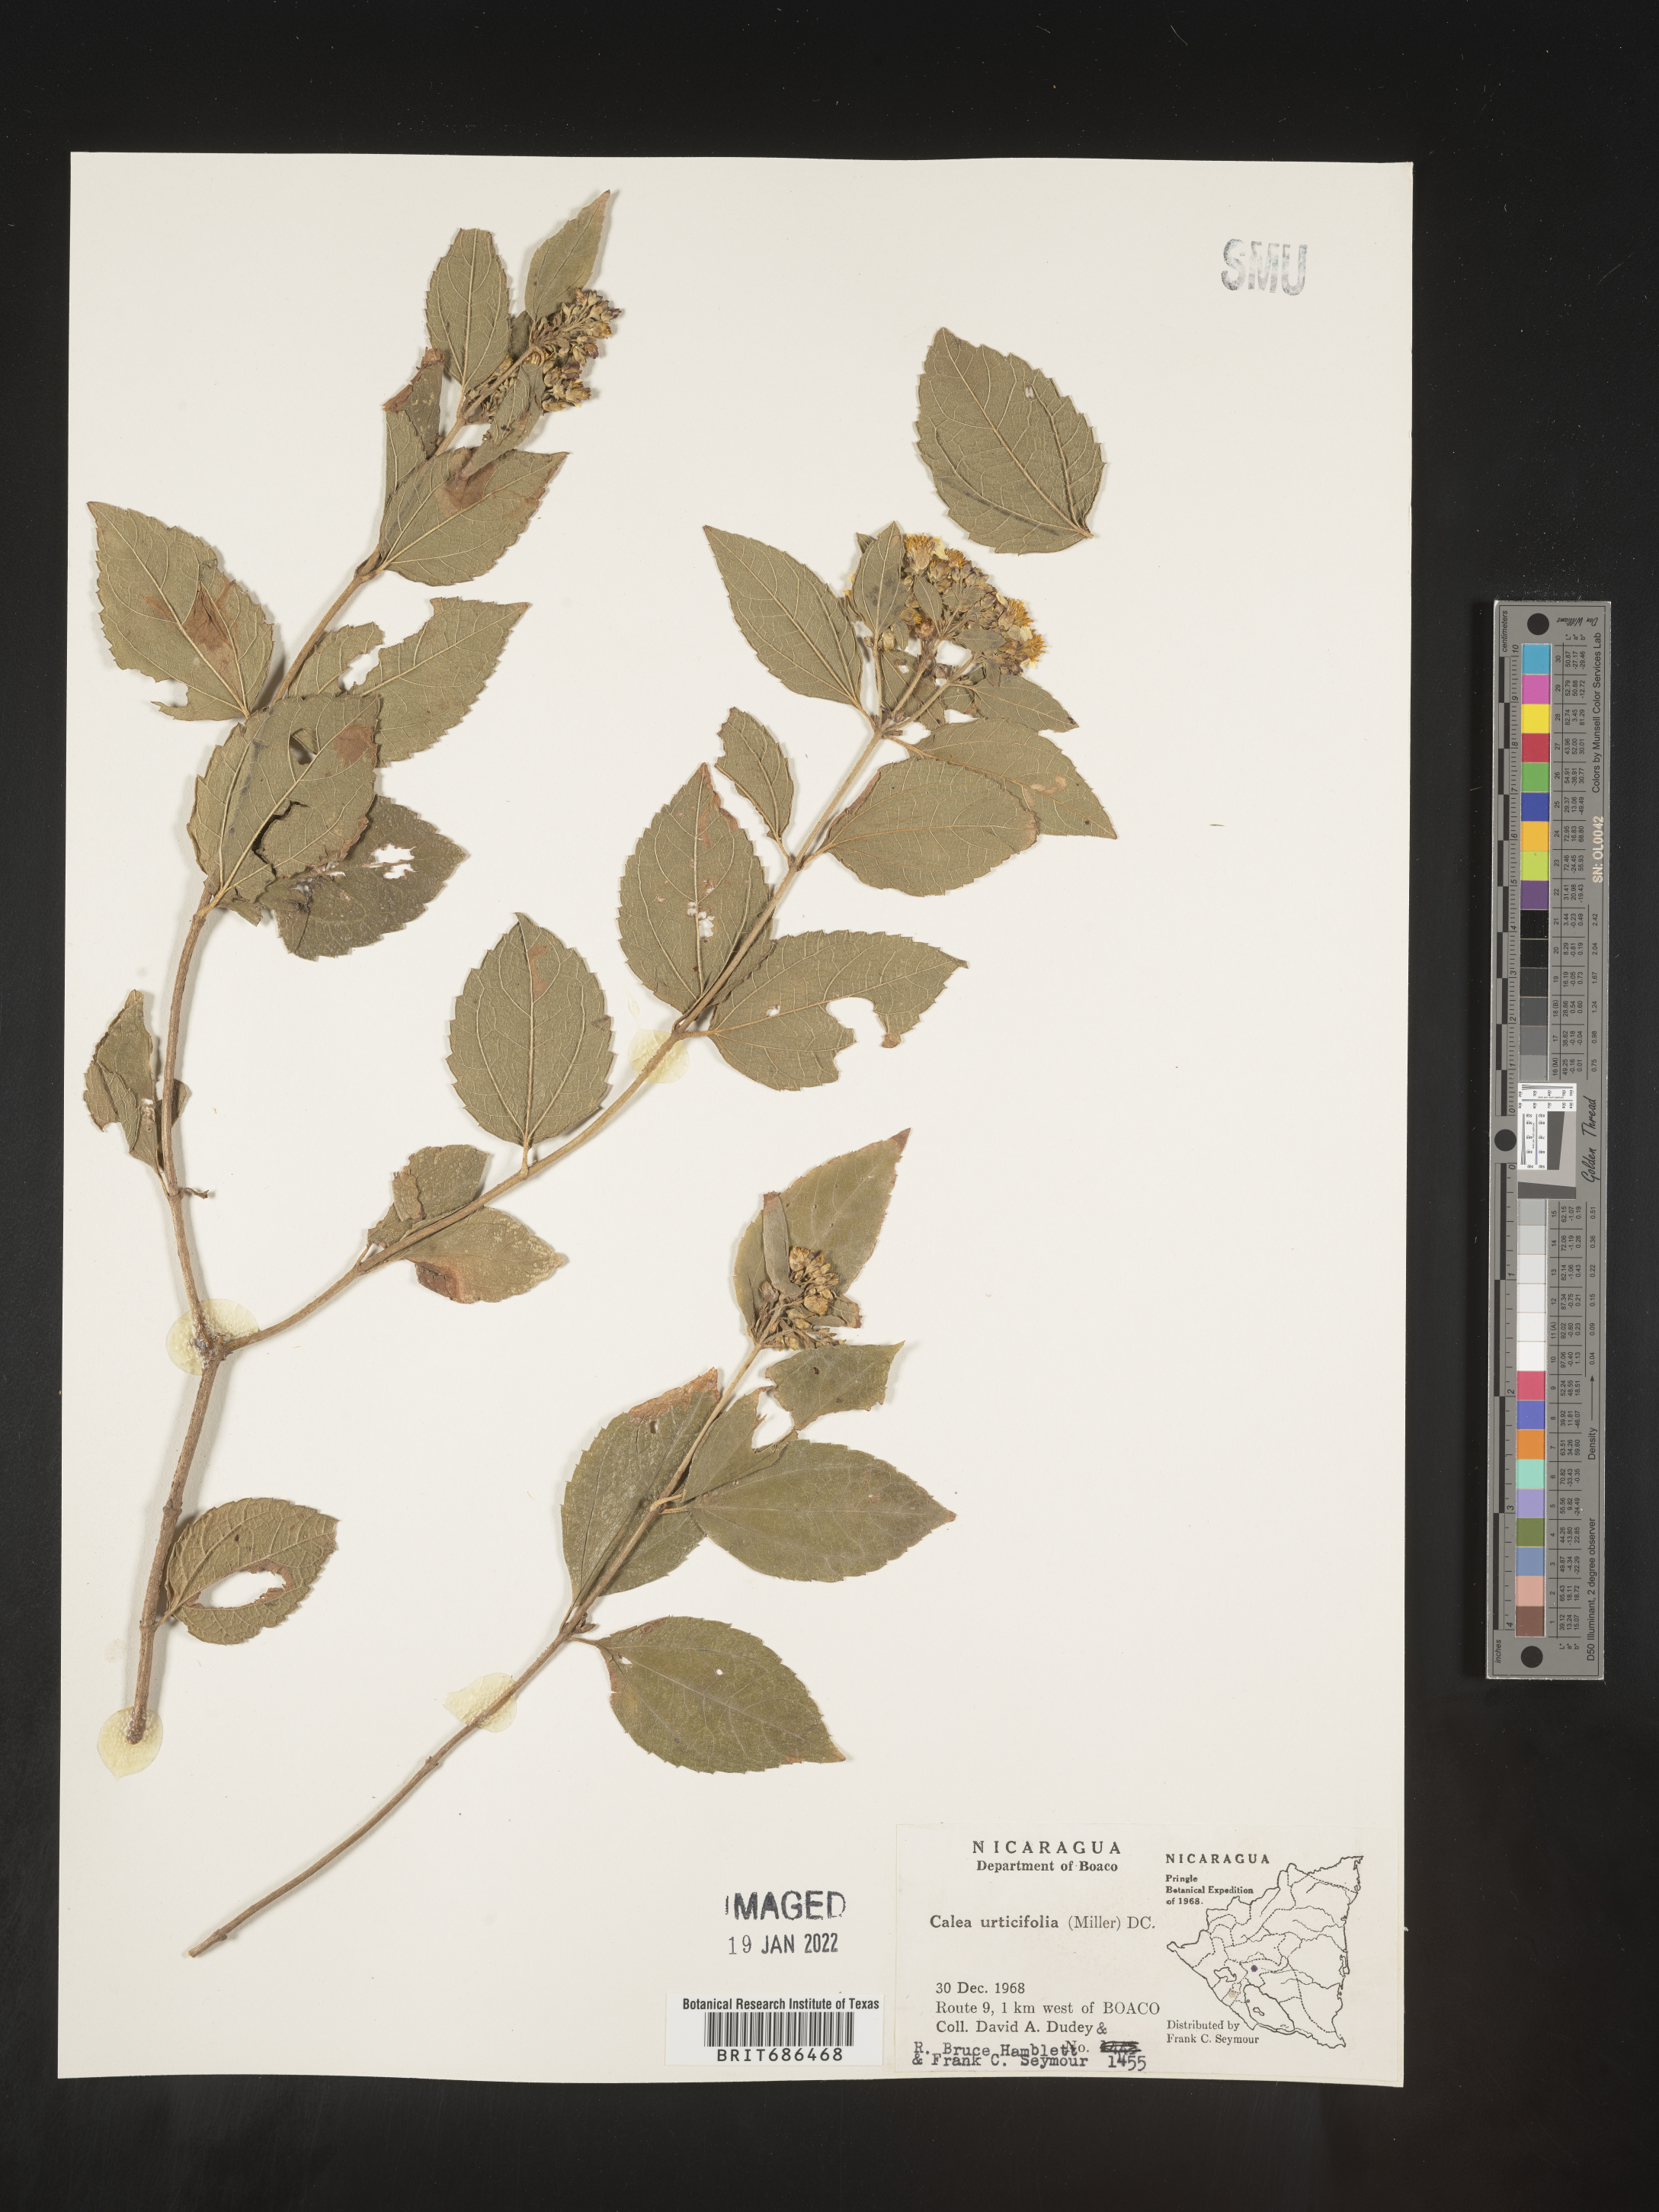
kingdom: Plantae
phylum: Tracheophyta
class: Magnoliopsida
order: Asterales
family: Asteraceae
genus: Calea
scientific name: Calea
